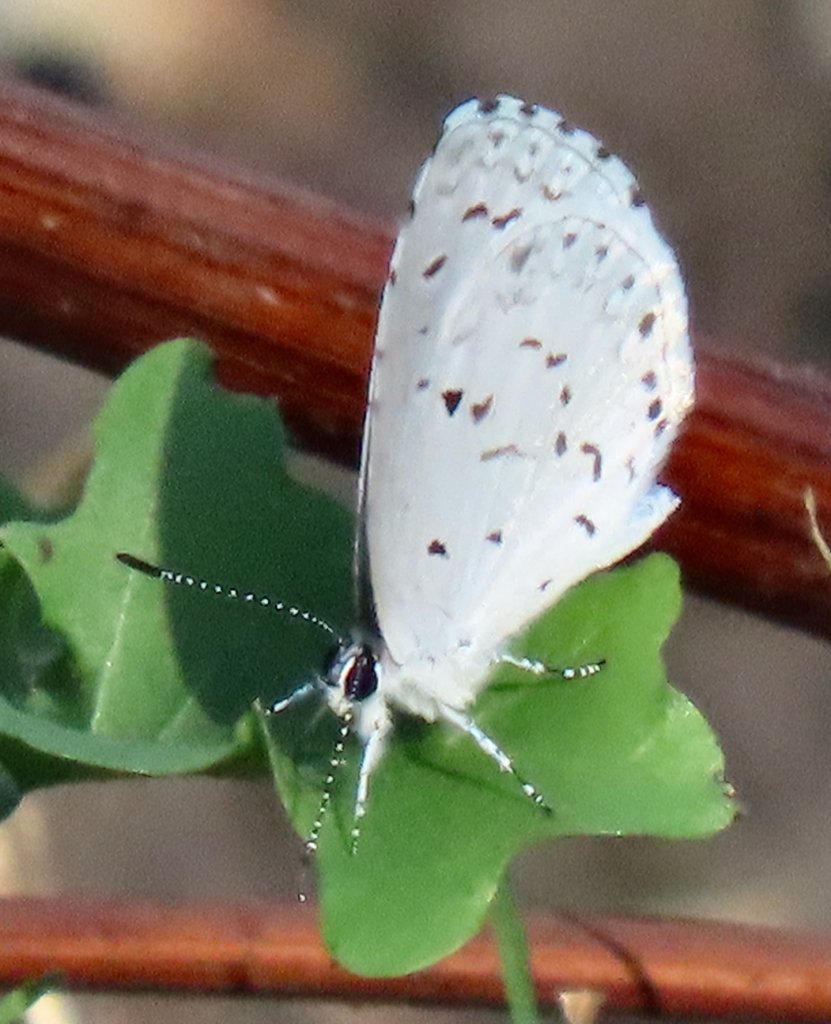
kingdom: Animalia
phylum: Arthropoda
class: Insecta
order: Lepidoptera
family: Lycaenidae
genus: Cyaniris
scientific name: Cyaniris neglecta
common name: Summer Azure
